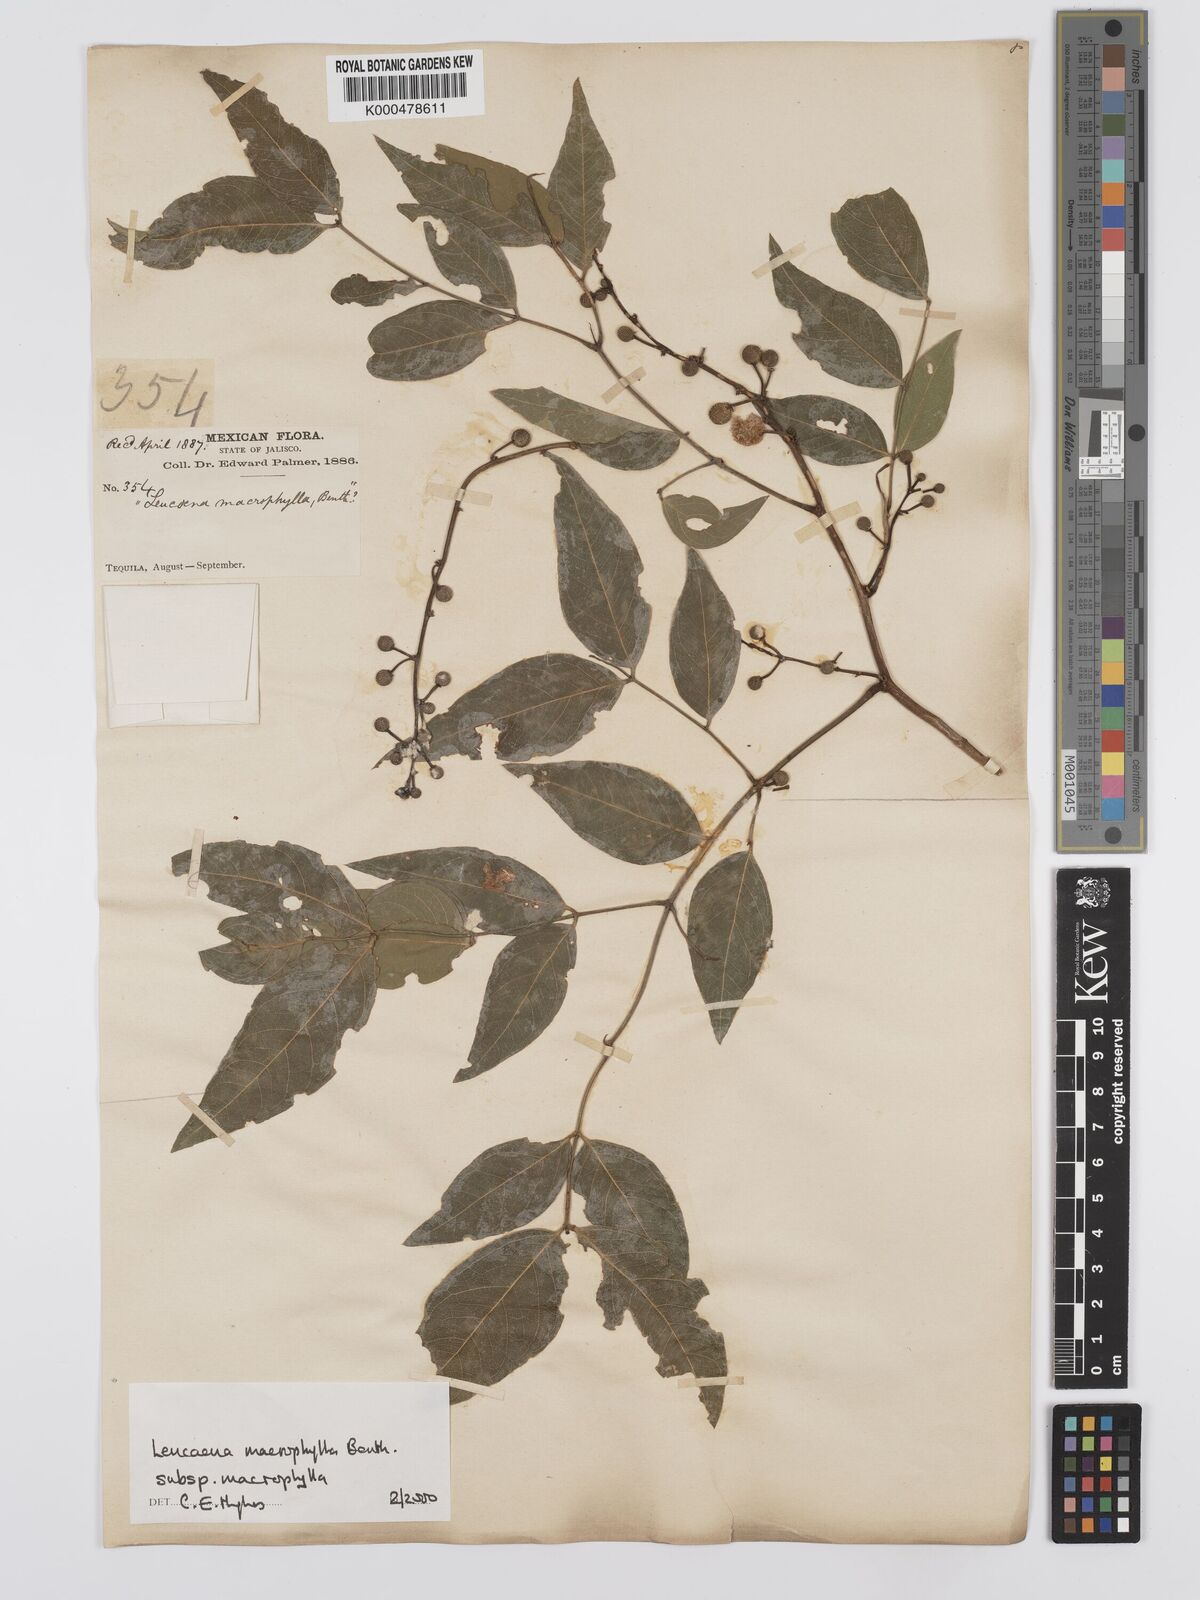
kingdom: Plantae
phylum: Tracheophyta
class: Magnoliopsida
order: Fabales
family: Fabaceae
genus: Leucaena
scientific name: Leucaena macrophylla
